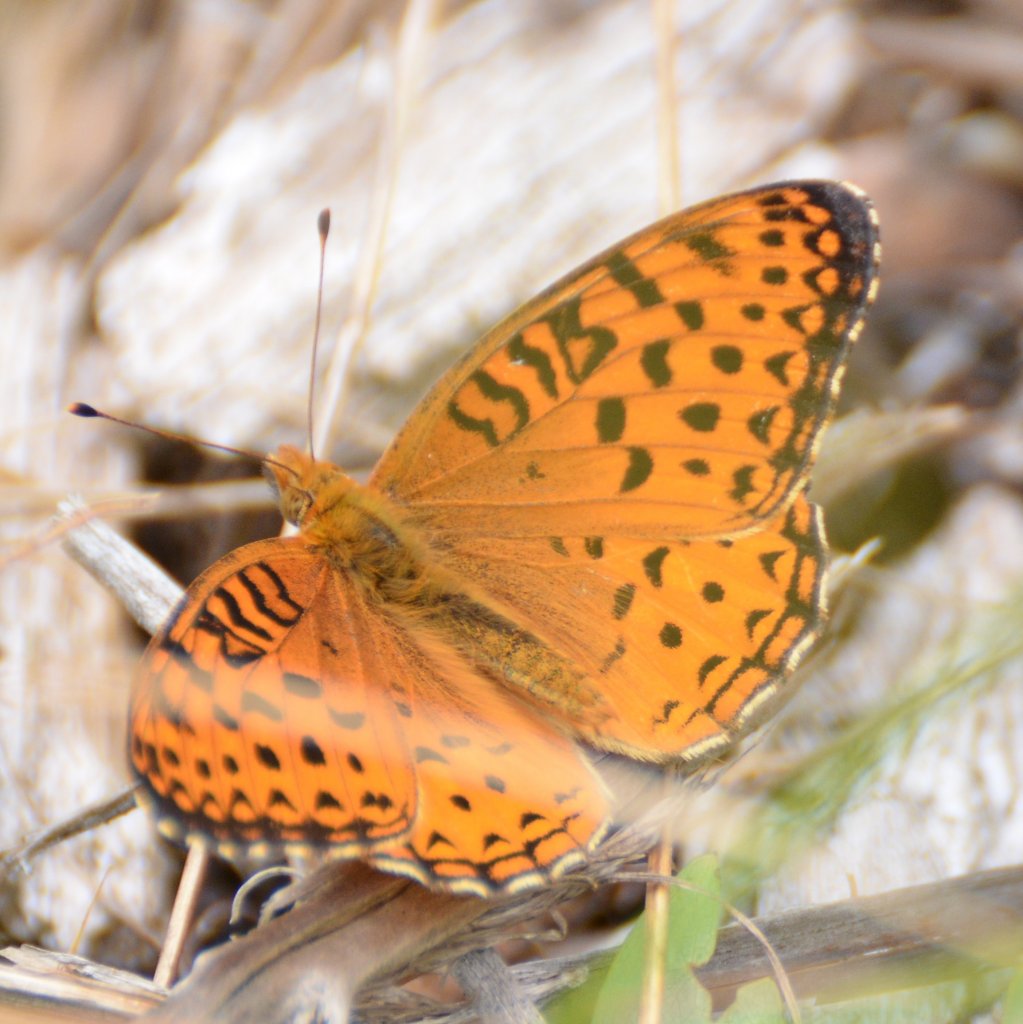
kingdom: Animalia
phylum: Arthropoda
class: Insecta
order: Lepidoptera
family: Nymphalidae
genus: Speyeria
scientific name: Speyeria aphrodite
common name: Aphrodite Fritillary
